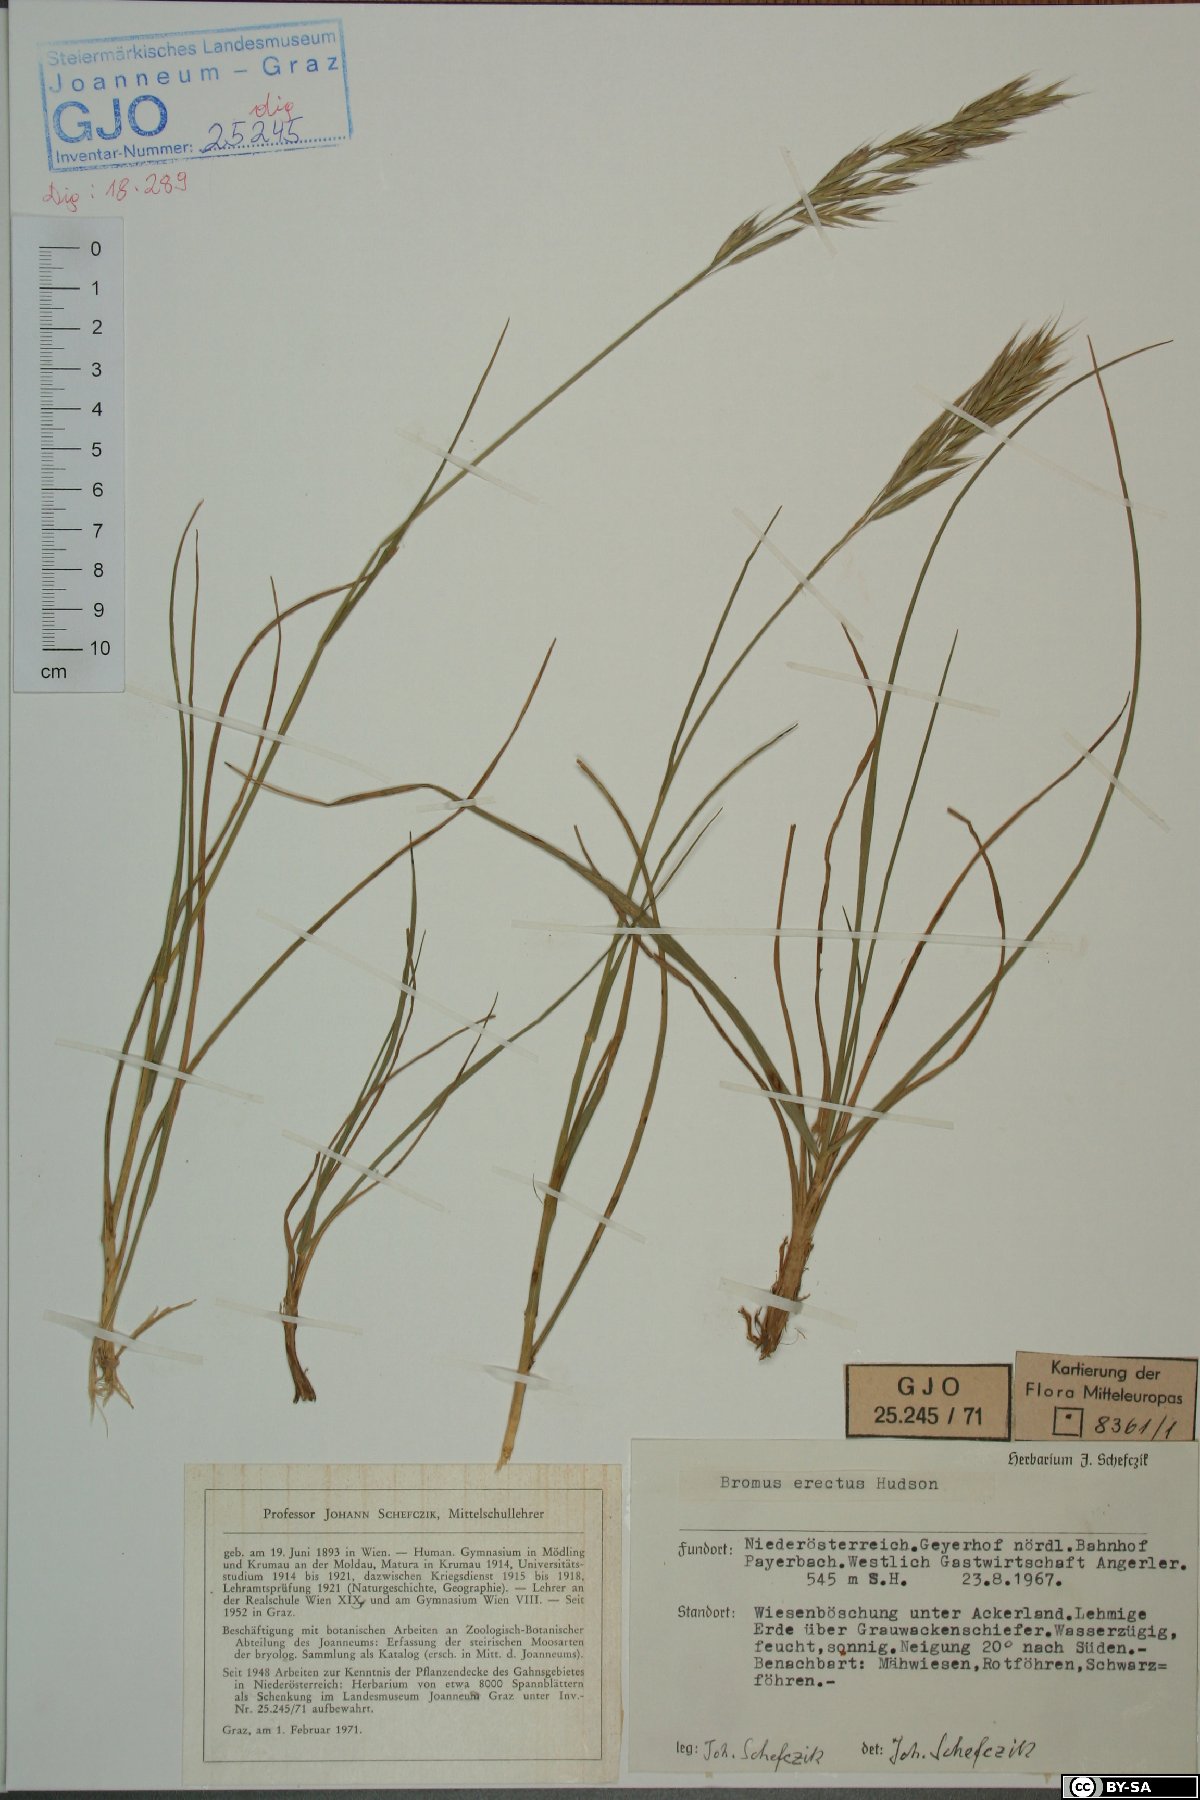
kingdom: Plantae
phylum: Tracheophyta
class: Liliopsida
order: Poales
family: Poaceae
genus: Bromus
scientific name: Bromus erectus
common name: Erect brome
